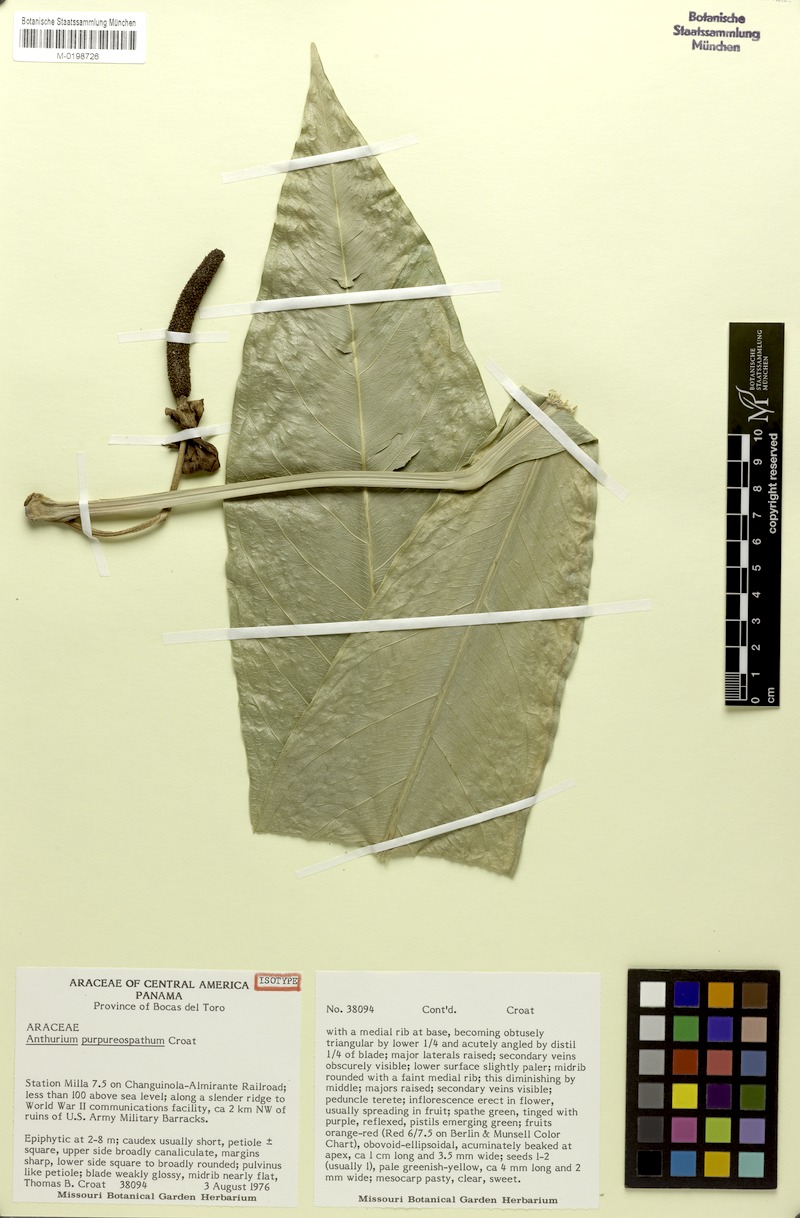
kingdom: Plantae
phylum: Tracheophyta
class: Liliopsida
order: Alismatales
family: Araceae
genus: Anthurium
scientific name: Anthurium purpureospathum
